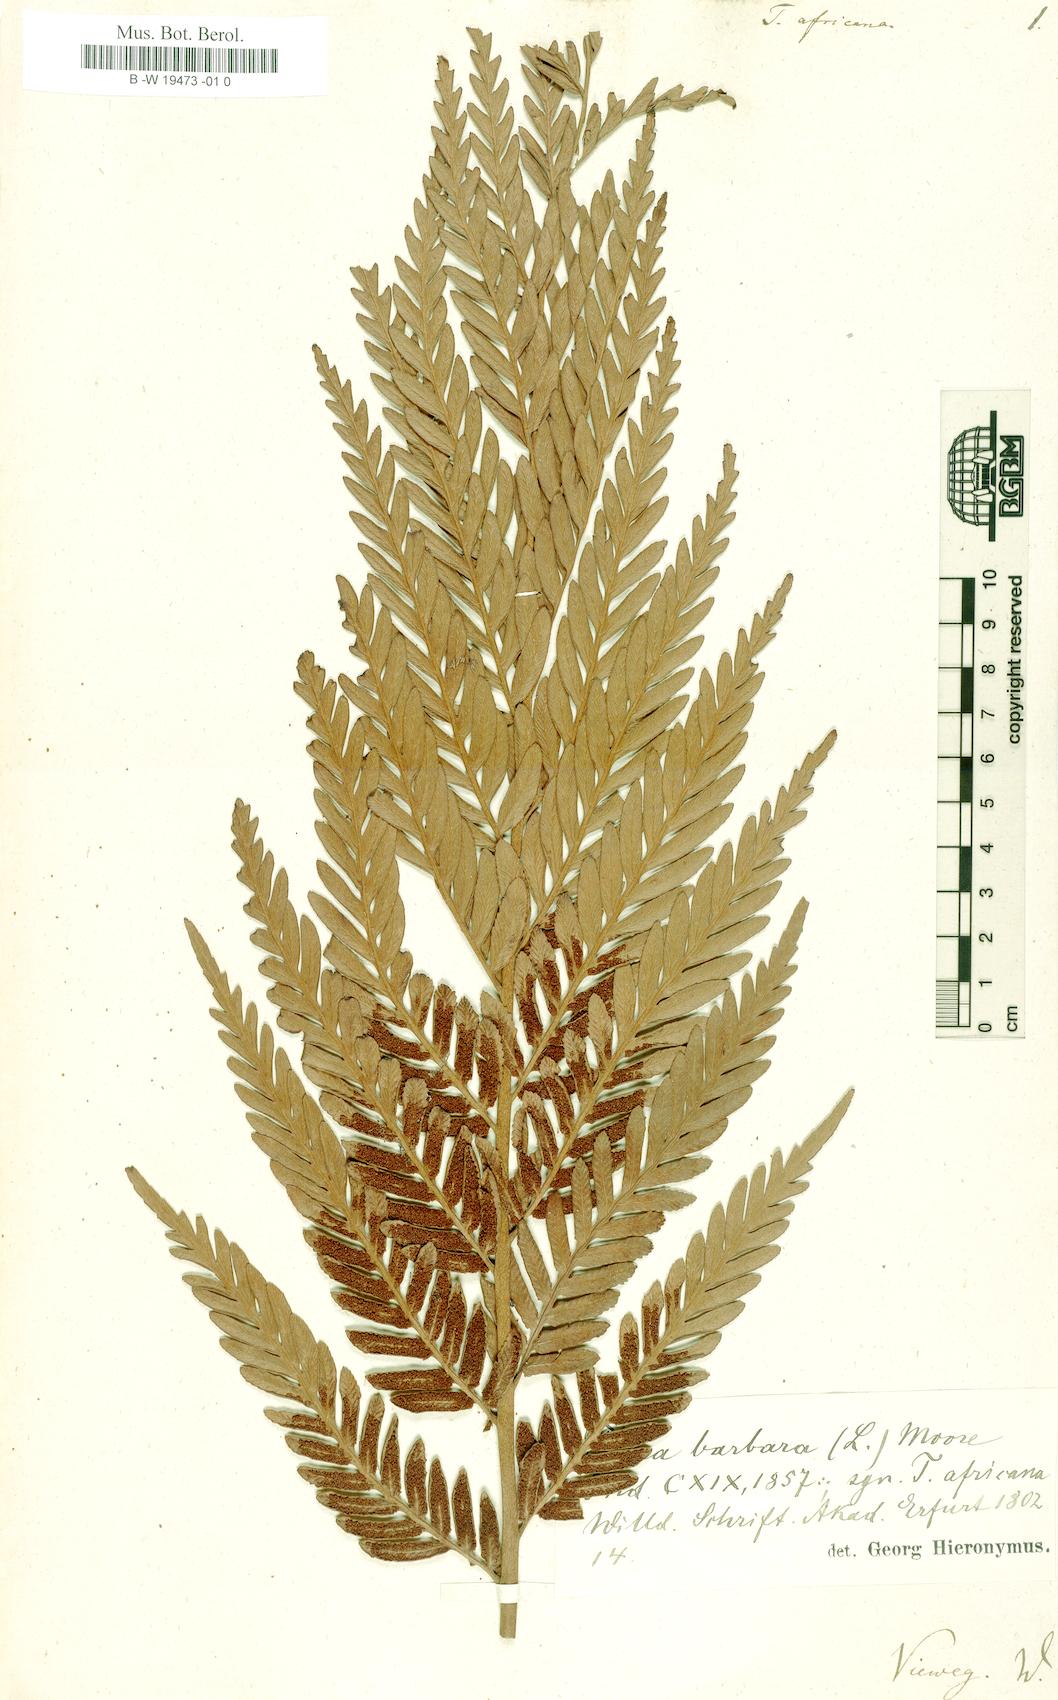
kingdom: Plantae
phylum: Tracheophyta
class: Polypodiopsida
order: Osmundales
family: Osmundaceae
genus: Todea
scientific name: Todea barbara
